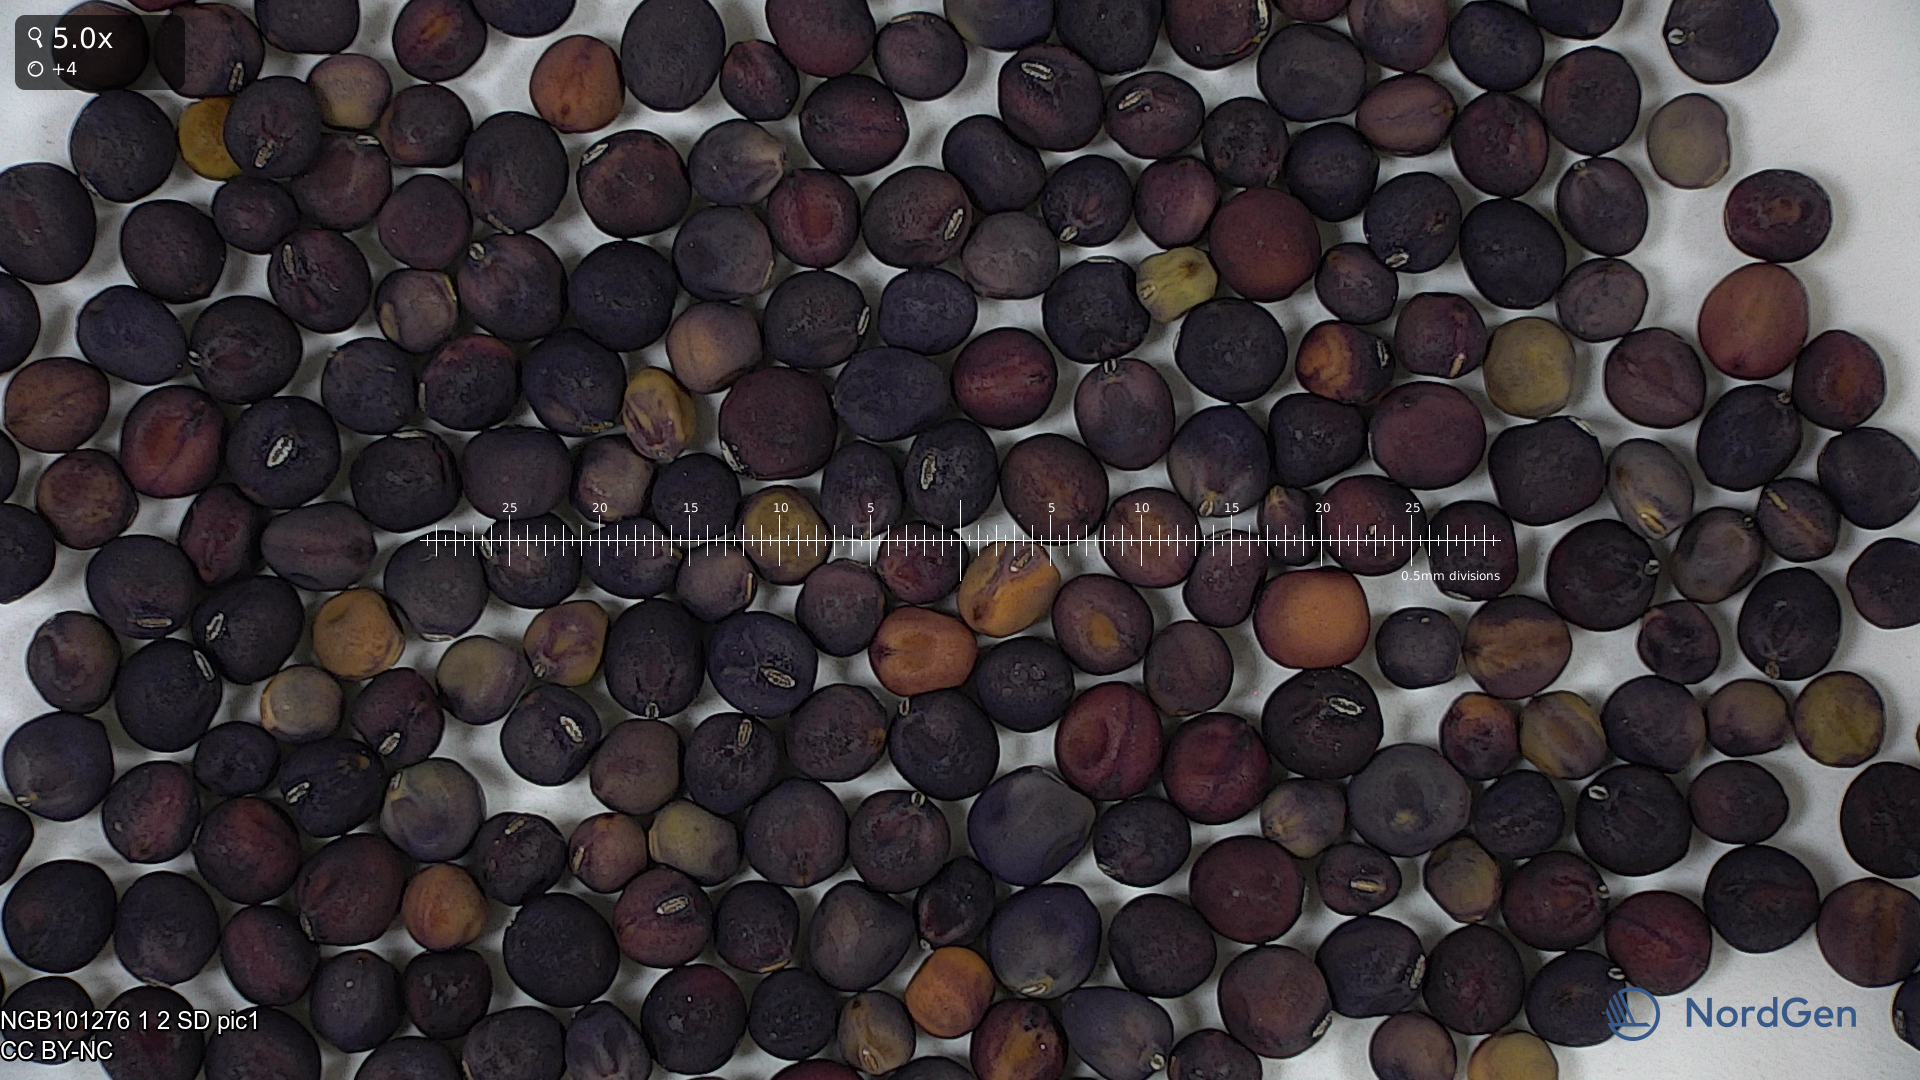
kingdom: Plantae
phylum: Tracheophyta
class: Magnoliopsida
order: Fabales
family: Fabaceae
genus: Lathyrus
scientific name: Lathyrus oleraceus
